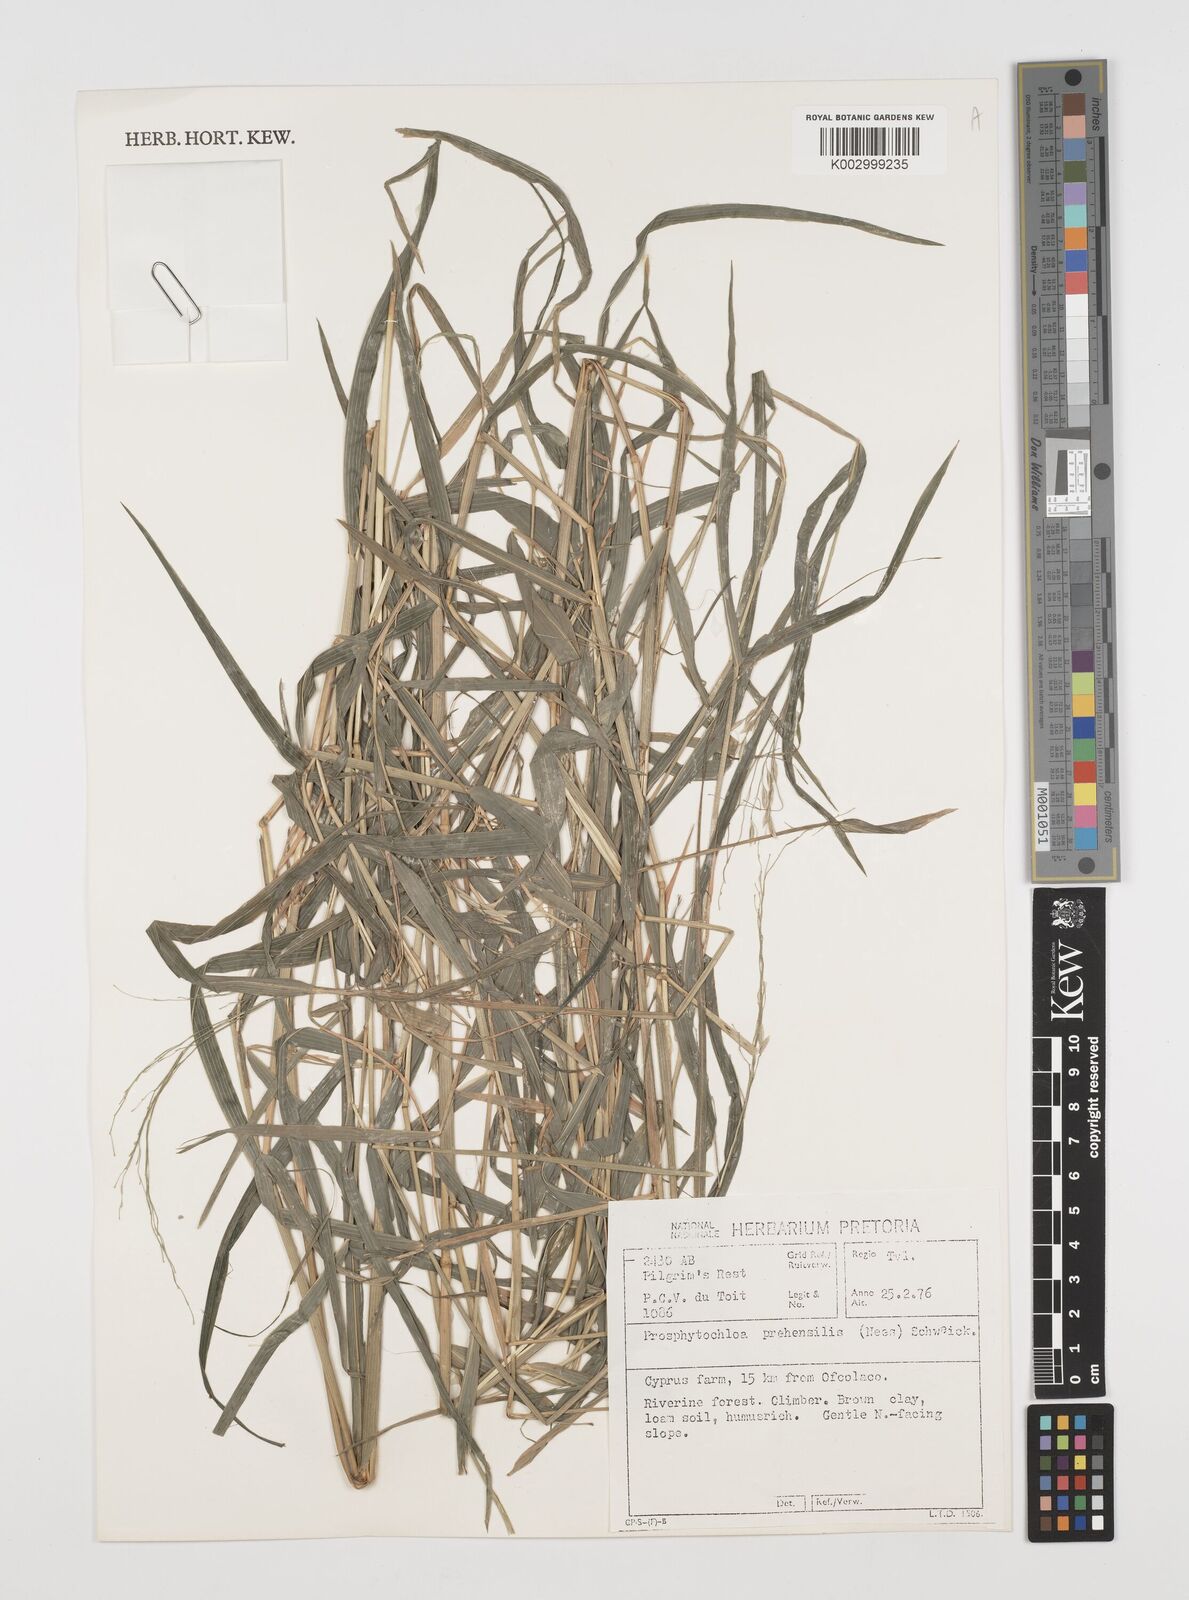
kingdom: Plantae
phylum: Tracheophyta
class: Liliopsida
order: Poales
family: Poaceae
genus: Prosphytochloa
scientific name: Prosphytochloa prehensilis
